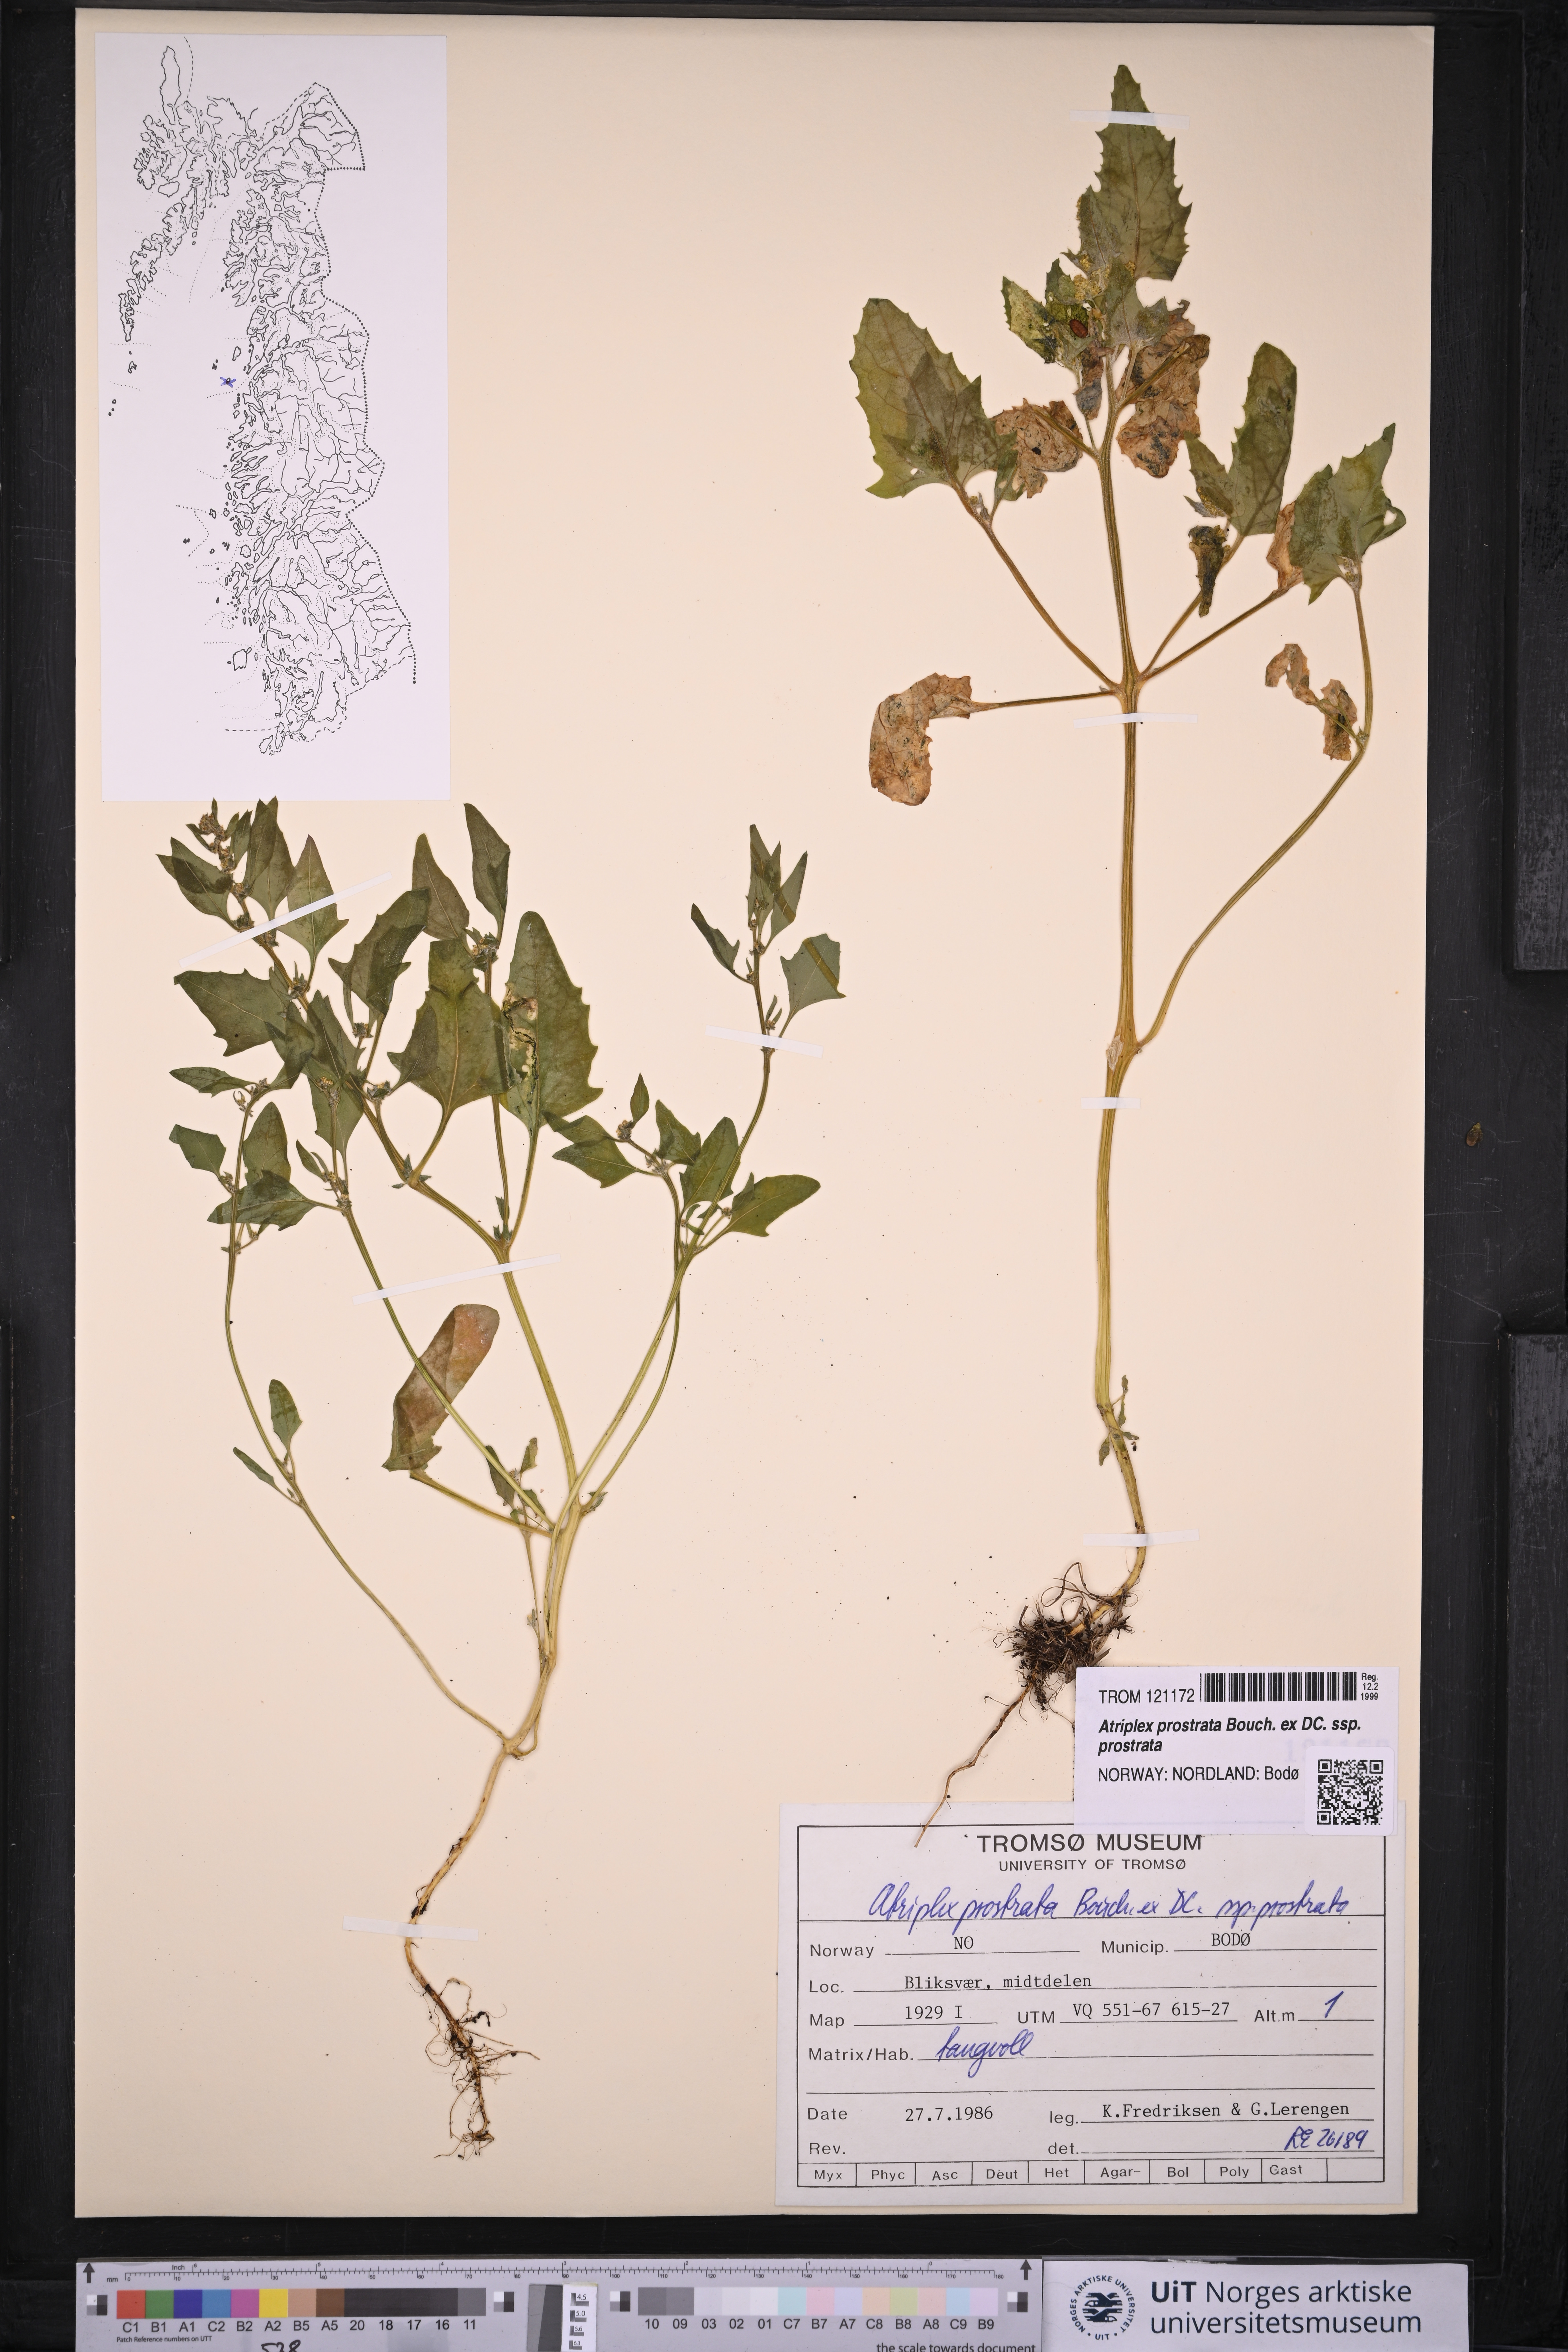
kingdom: Plantae
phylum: Tracheophyta
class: Magnoliopsida
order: Caryophyllales
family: Amaranthaceae
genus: Atriplex
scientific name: Atriplex prostrata
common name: Spear-leaved orache
